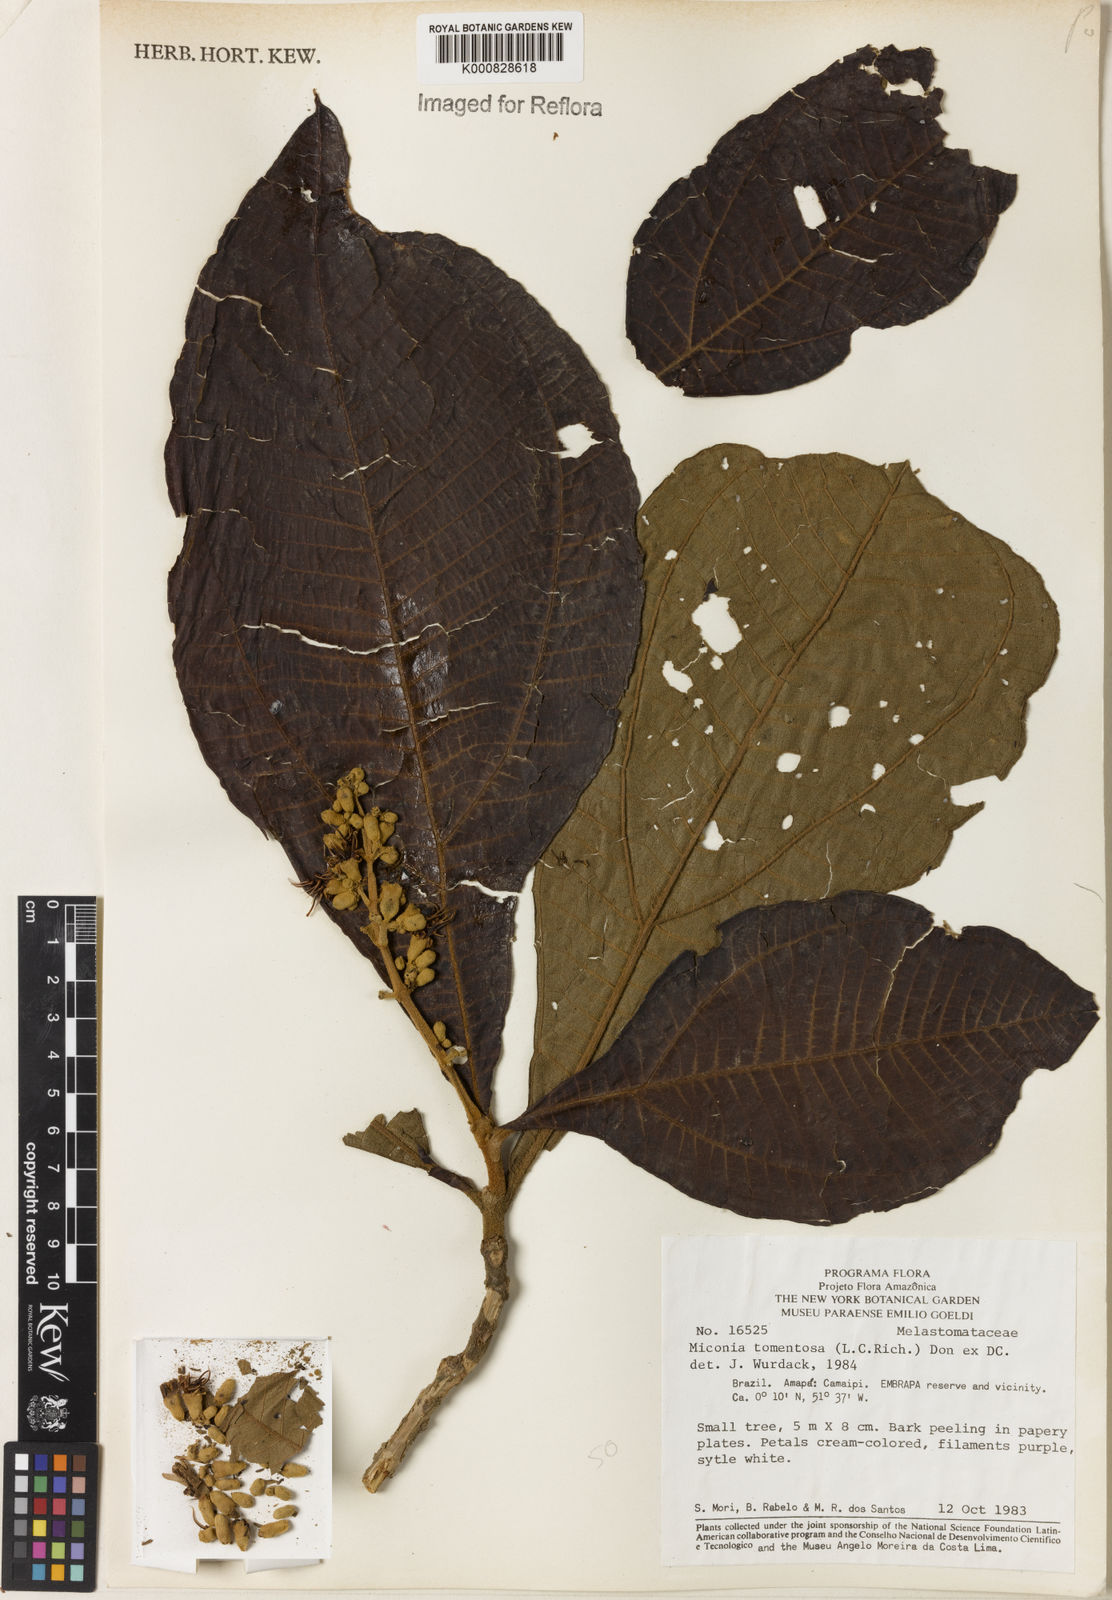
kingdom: Plantae
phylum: Tracheophyta
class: Magnoliopsida
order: Myrtales
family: Melastomataceae
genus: Miconia
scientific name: Miconia tomentosa
